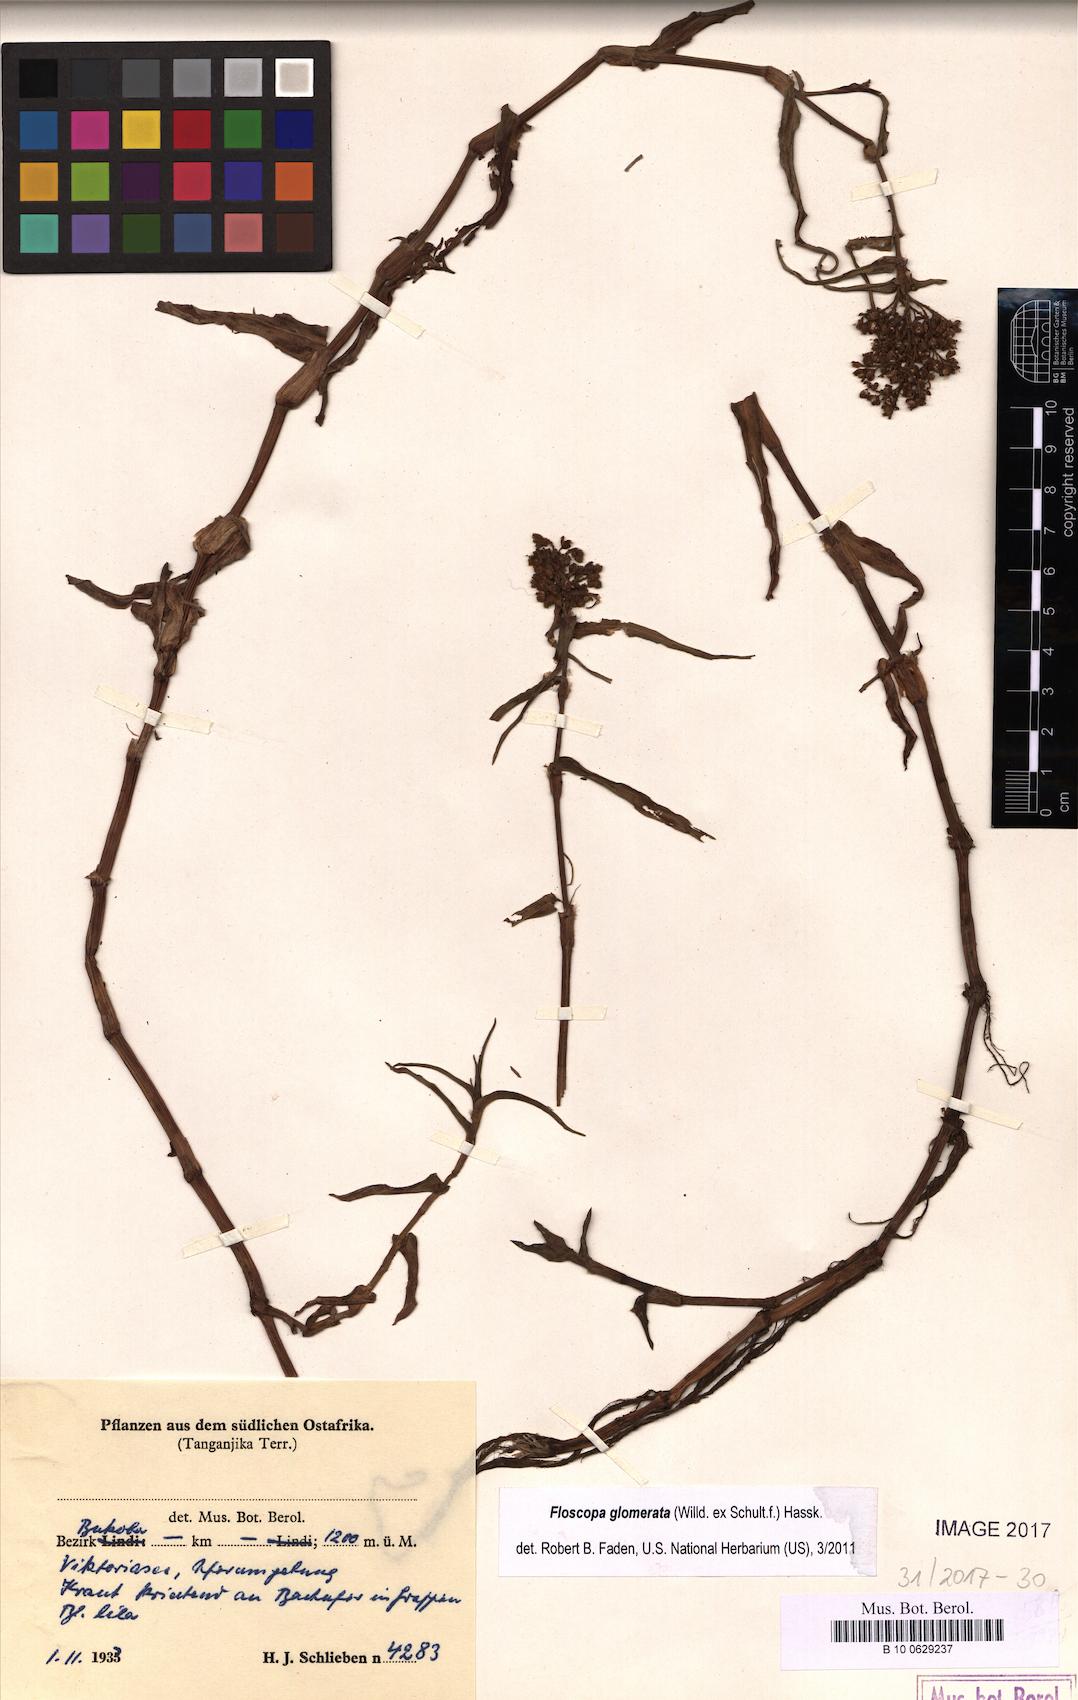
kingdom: Plantae
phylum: Tracheophyta
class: Liliopsida
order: Commelinales
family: Commelinaceae
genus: Floscopa
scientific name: Floscopa glomerata
